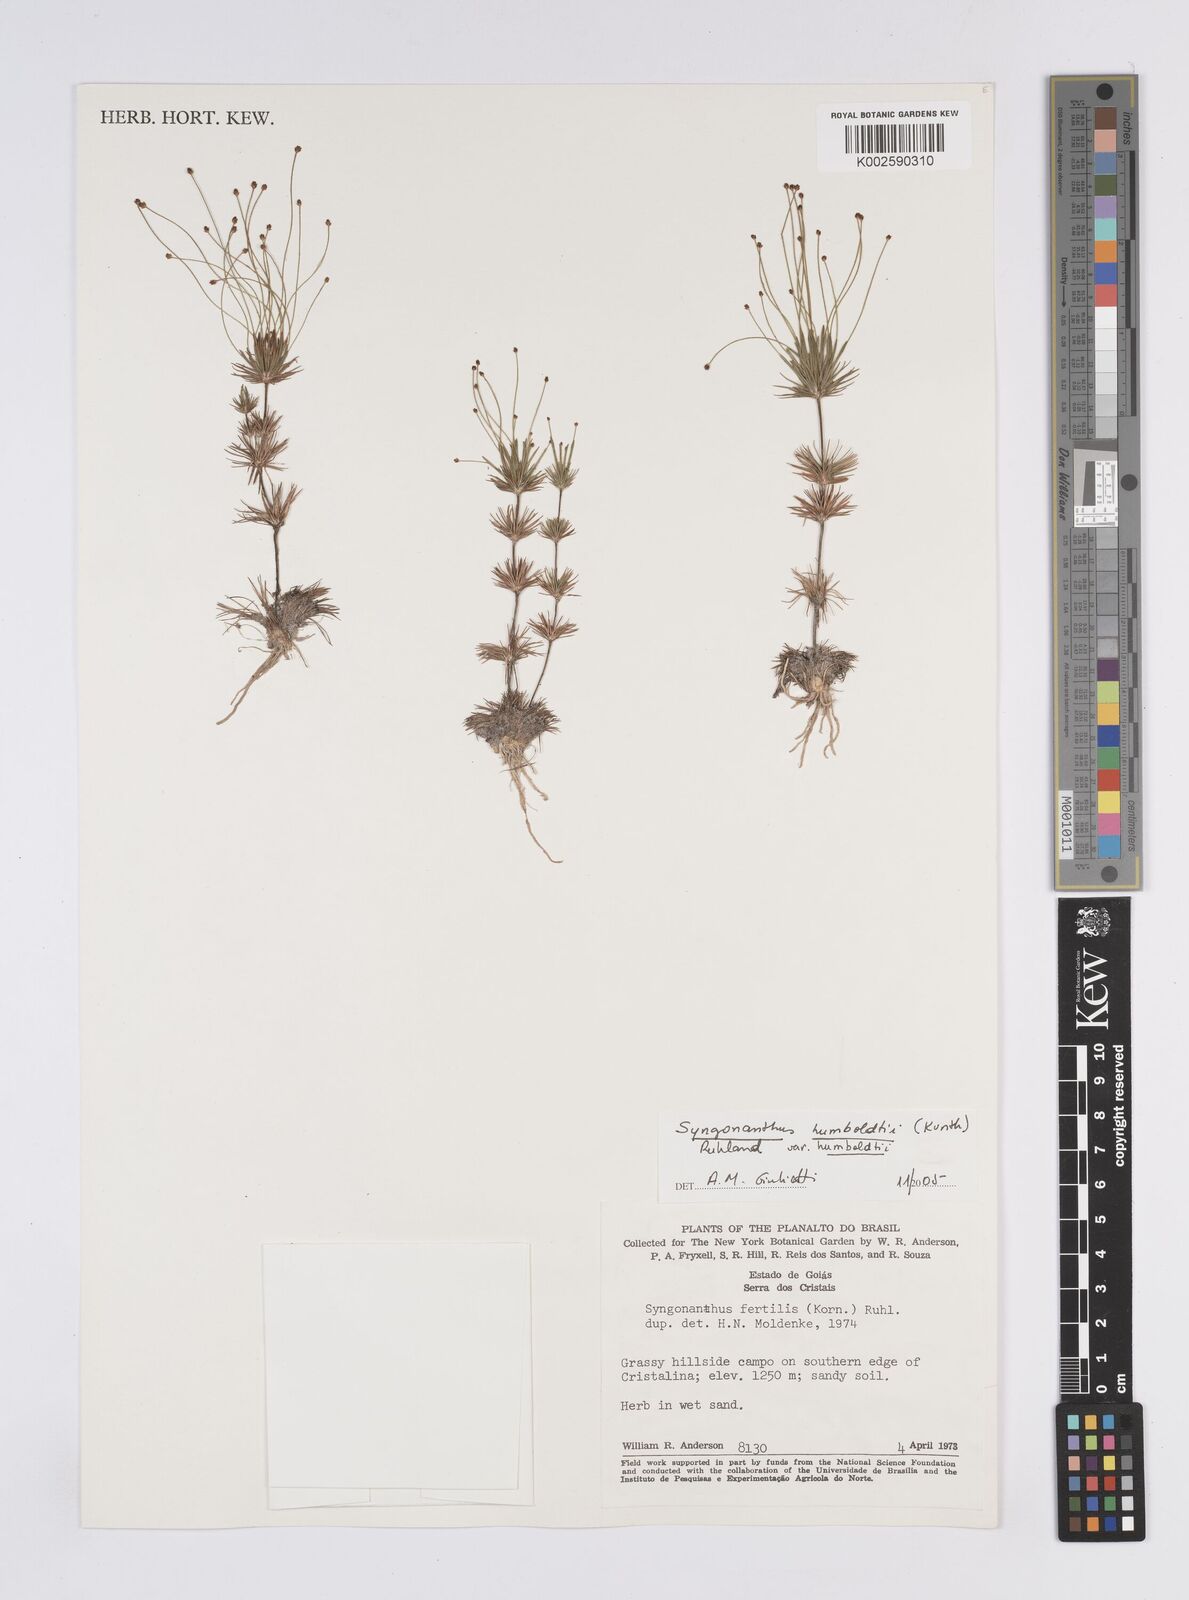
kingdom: Plantae
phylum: Tracheophyta
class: Liliopsida
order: Poales
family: Eriocaulaceae
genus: Syngonanthus
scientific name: Syngonanthus humboldtii
